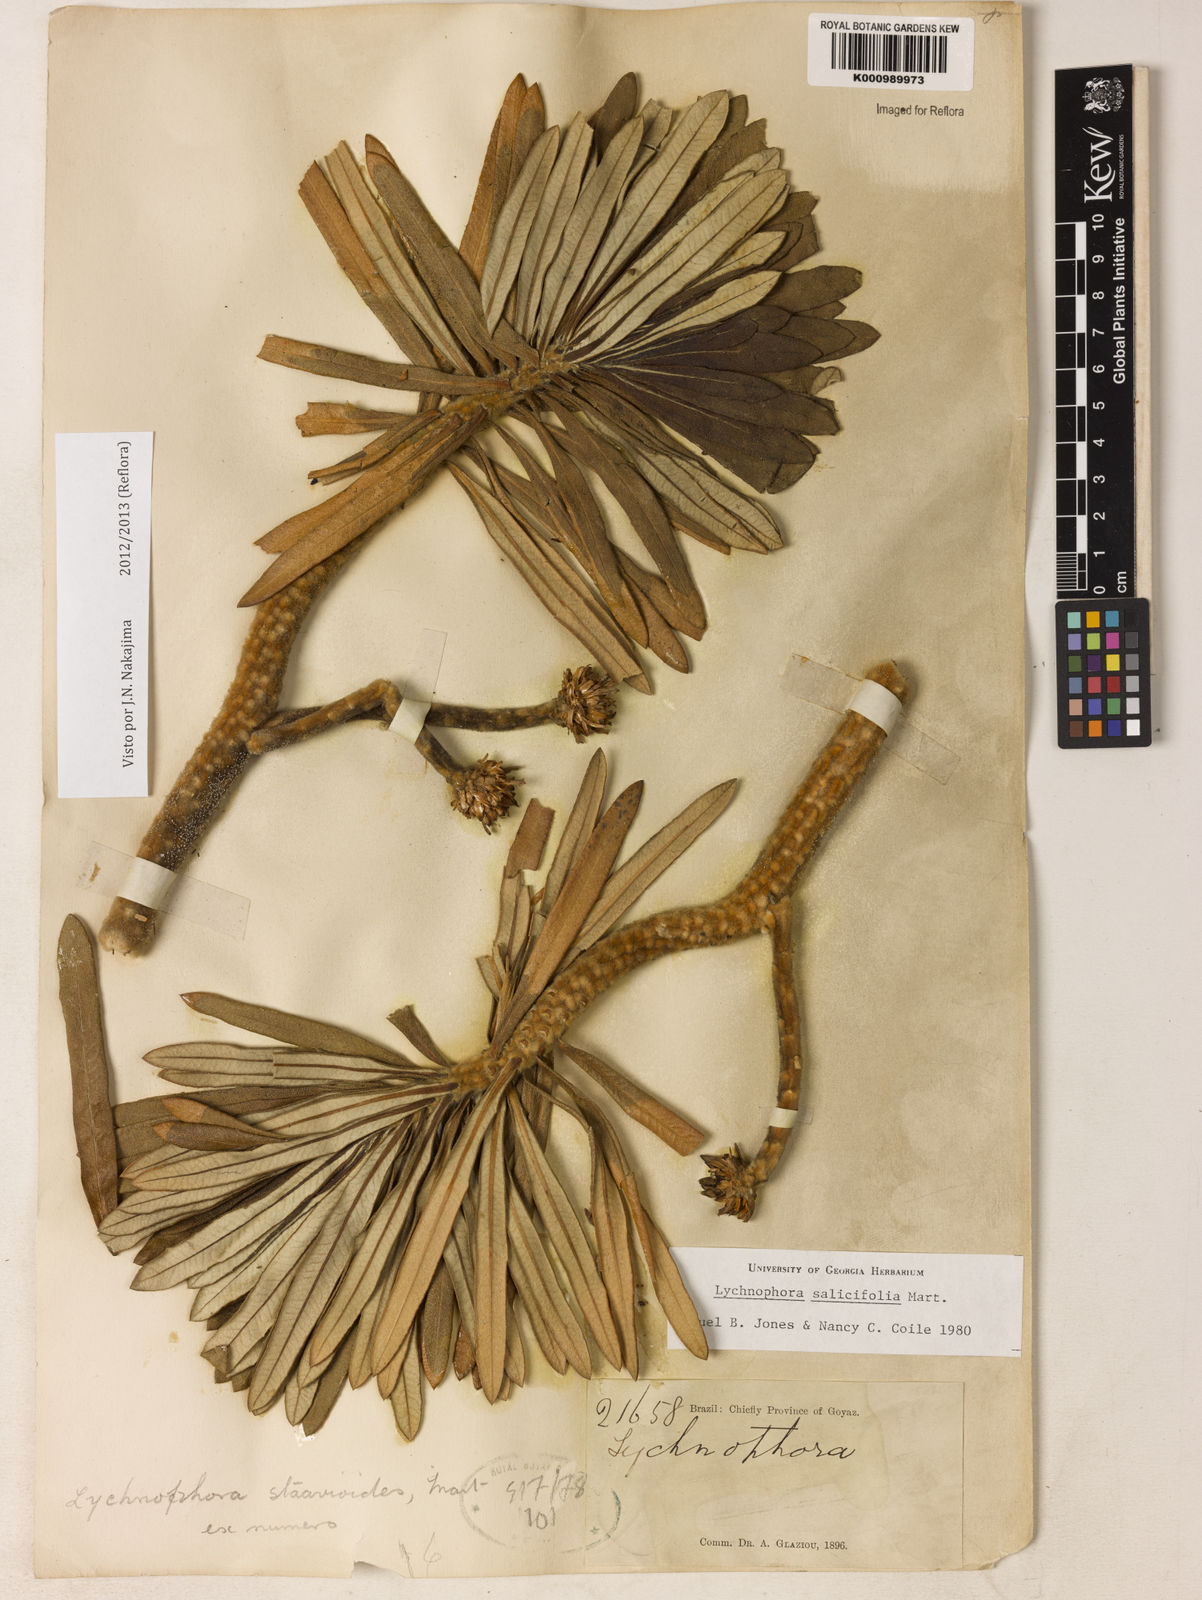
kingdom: Plantae
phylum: Tracheophyta
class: Magnoliopsida
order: Asterales
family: Asteraceae
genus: Lychnophora
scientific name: Lychnophora salicifolia
